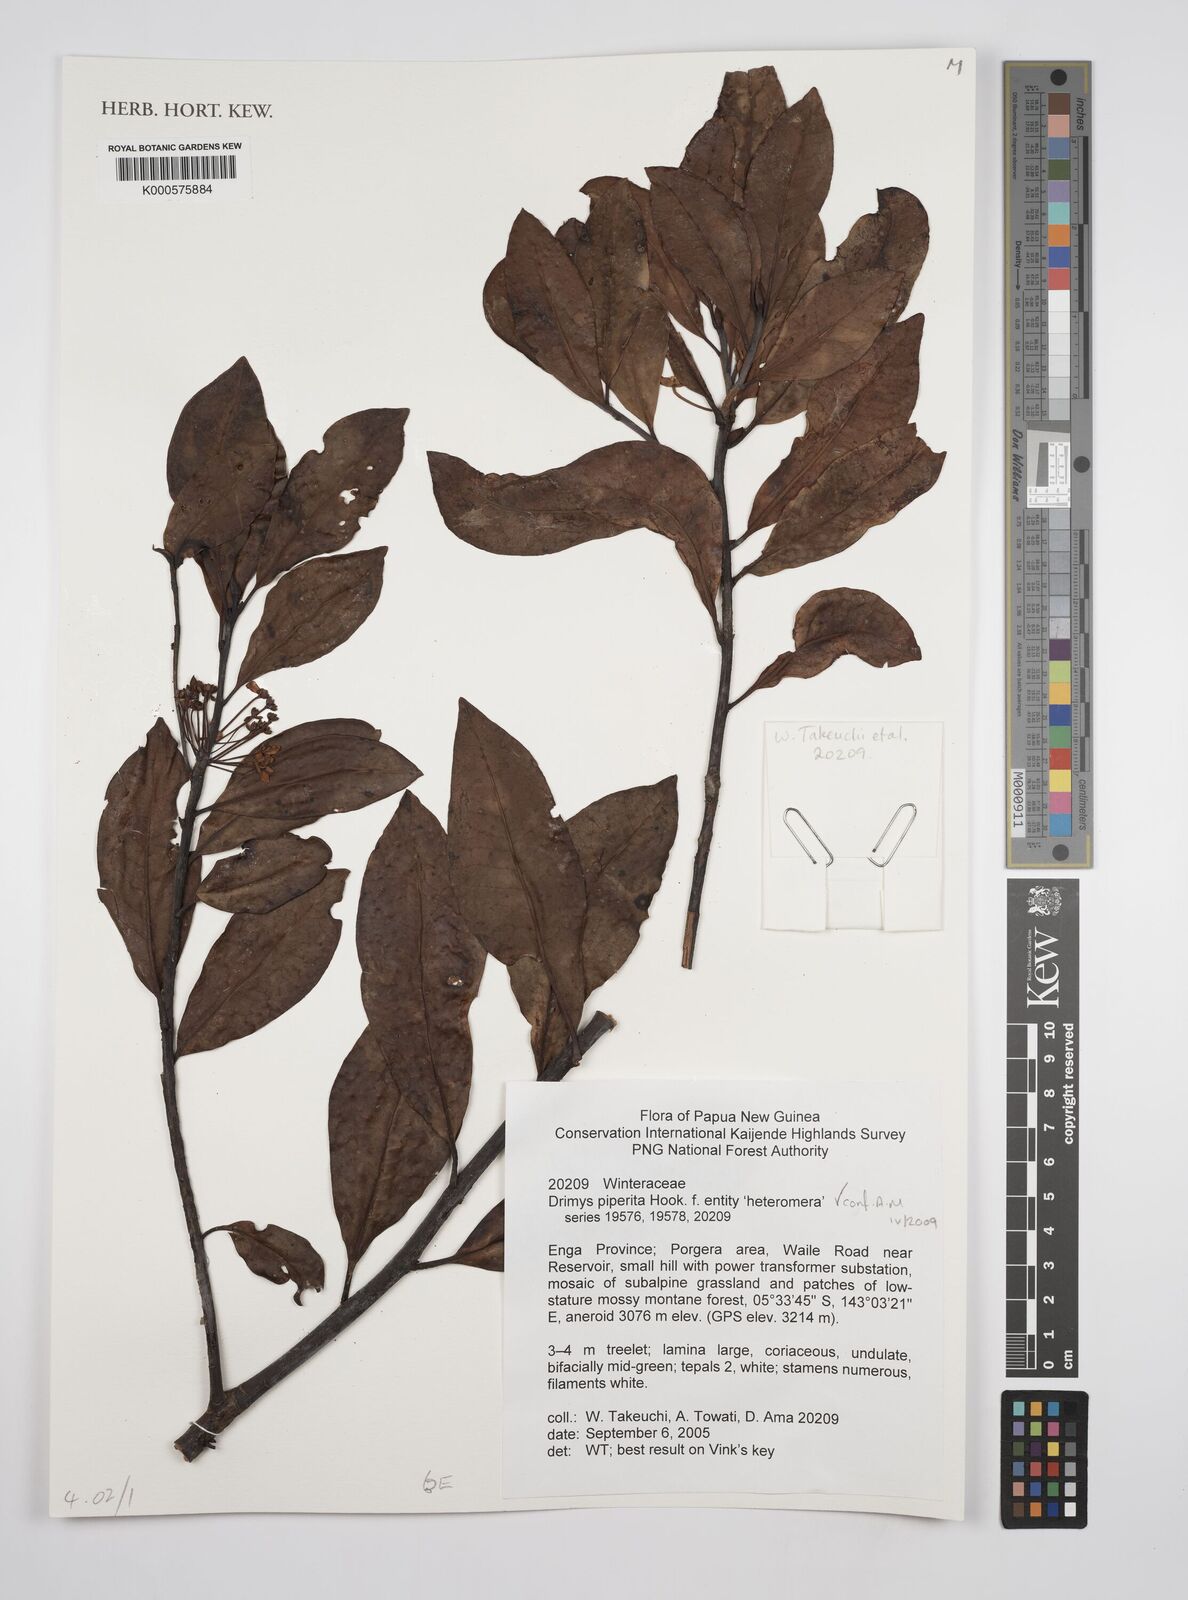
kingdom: Plantae
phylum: Tracheophyta
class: Magnoliopsida
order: Canellales
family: Winteraceae
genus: Drimys
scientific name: Drimys piperita
